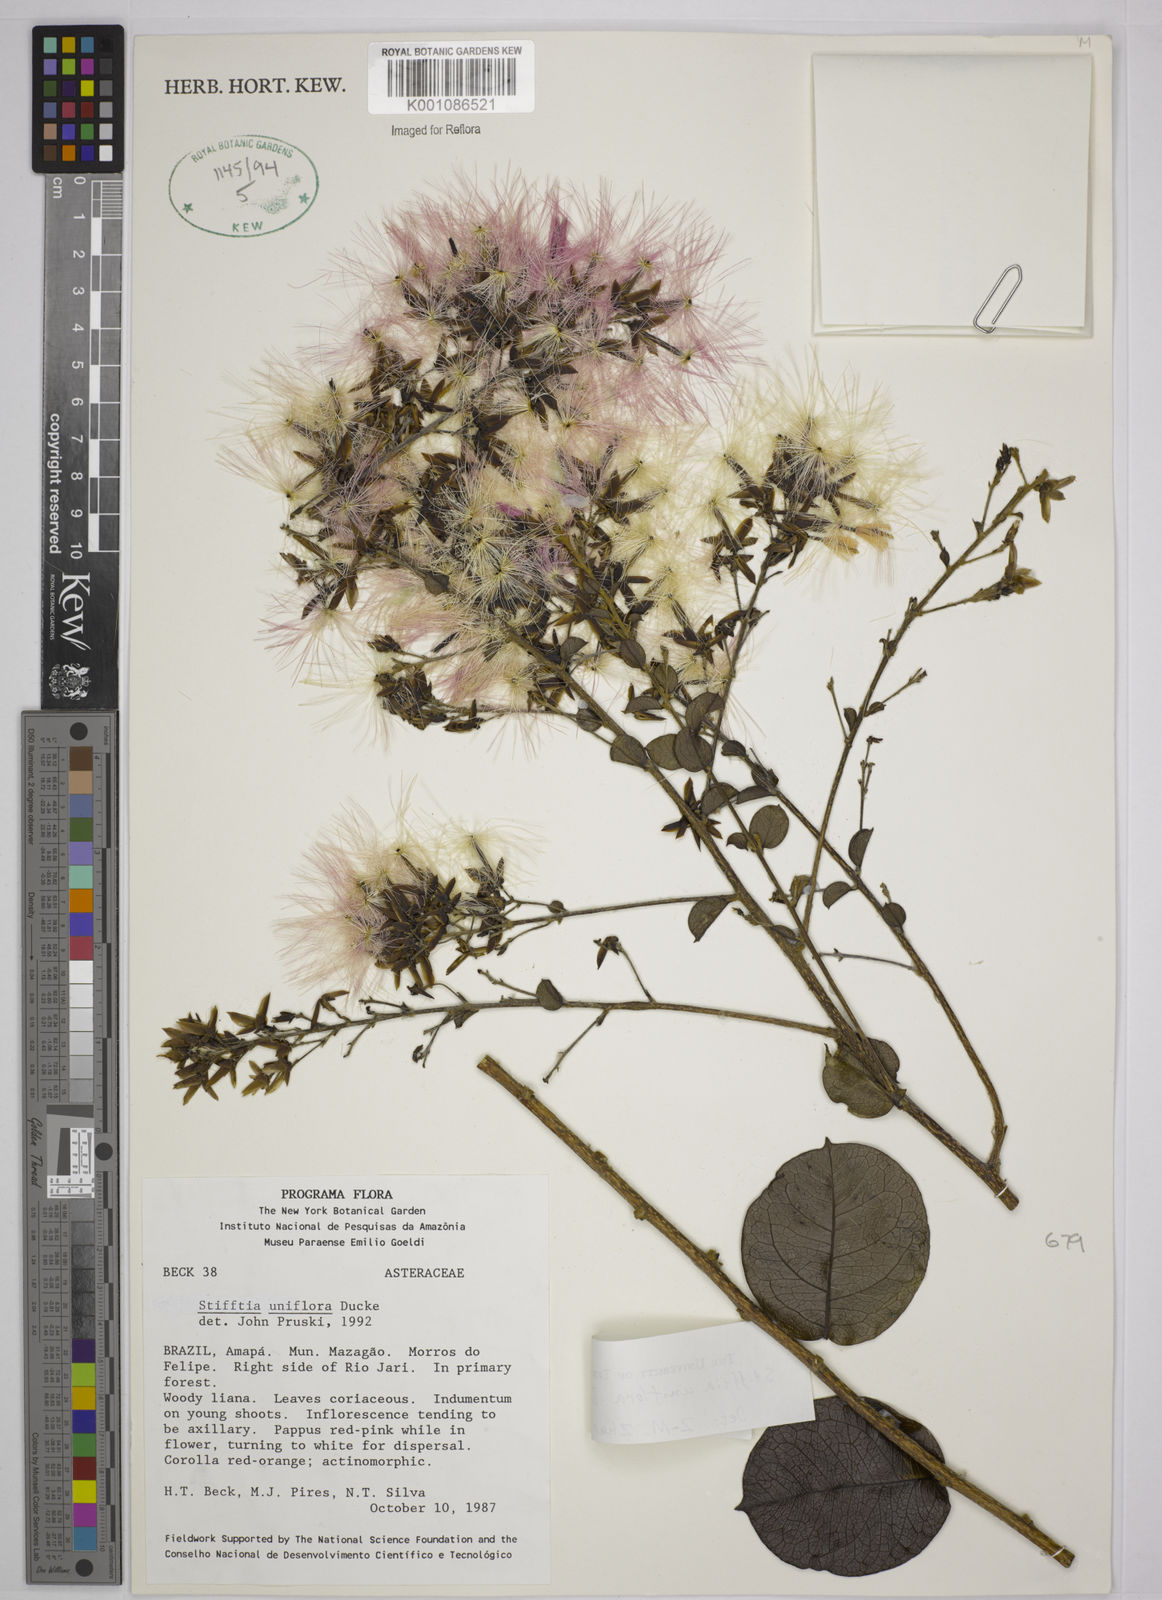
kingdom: Plantae
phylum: Tracheophyta
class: Liliopsida
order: Poales
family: Poaceae
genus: Panicum
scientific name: Panicum aquarum
